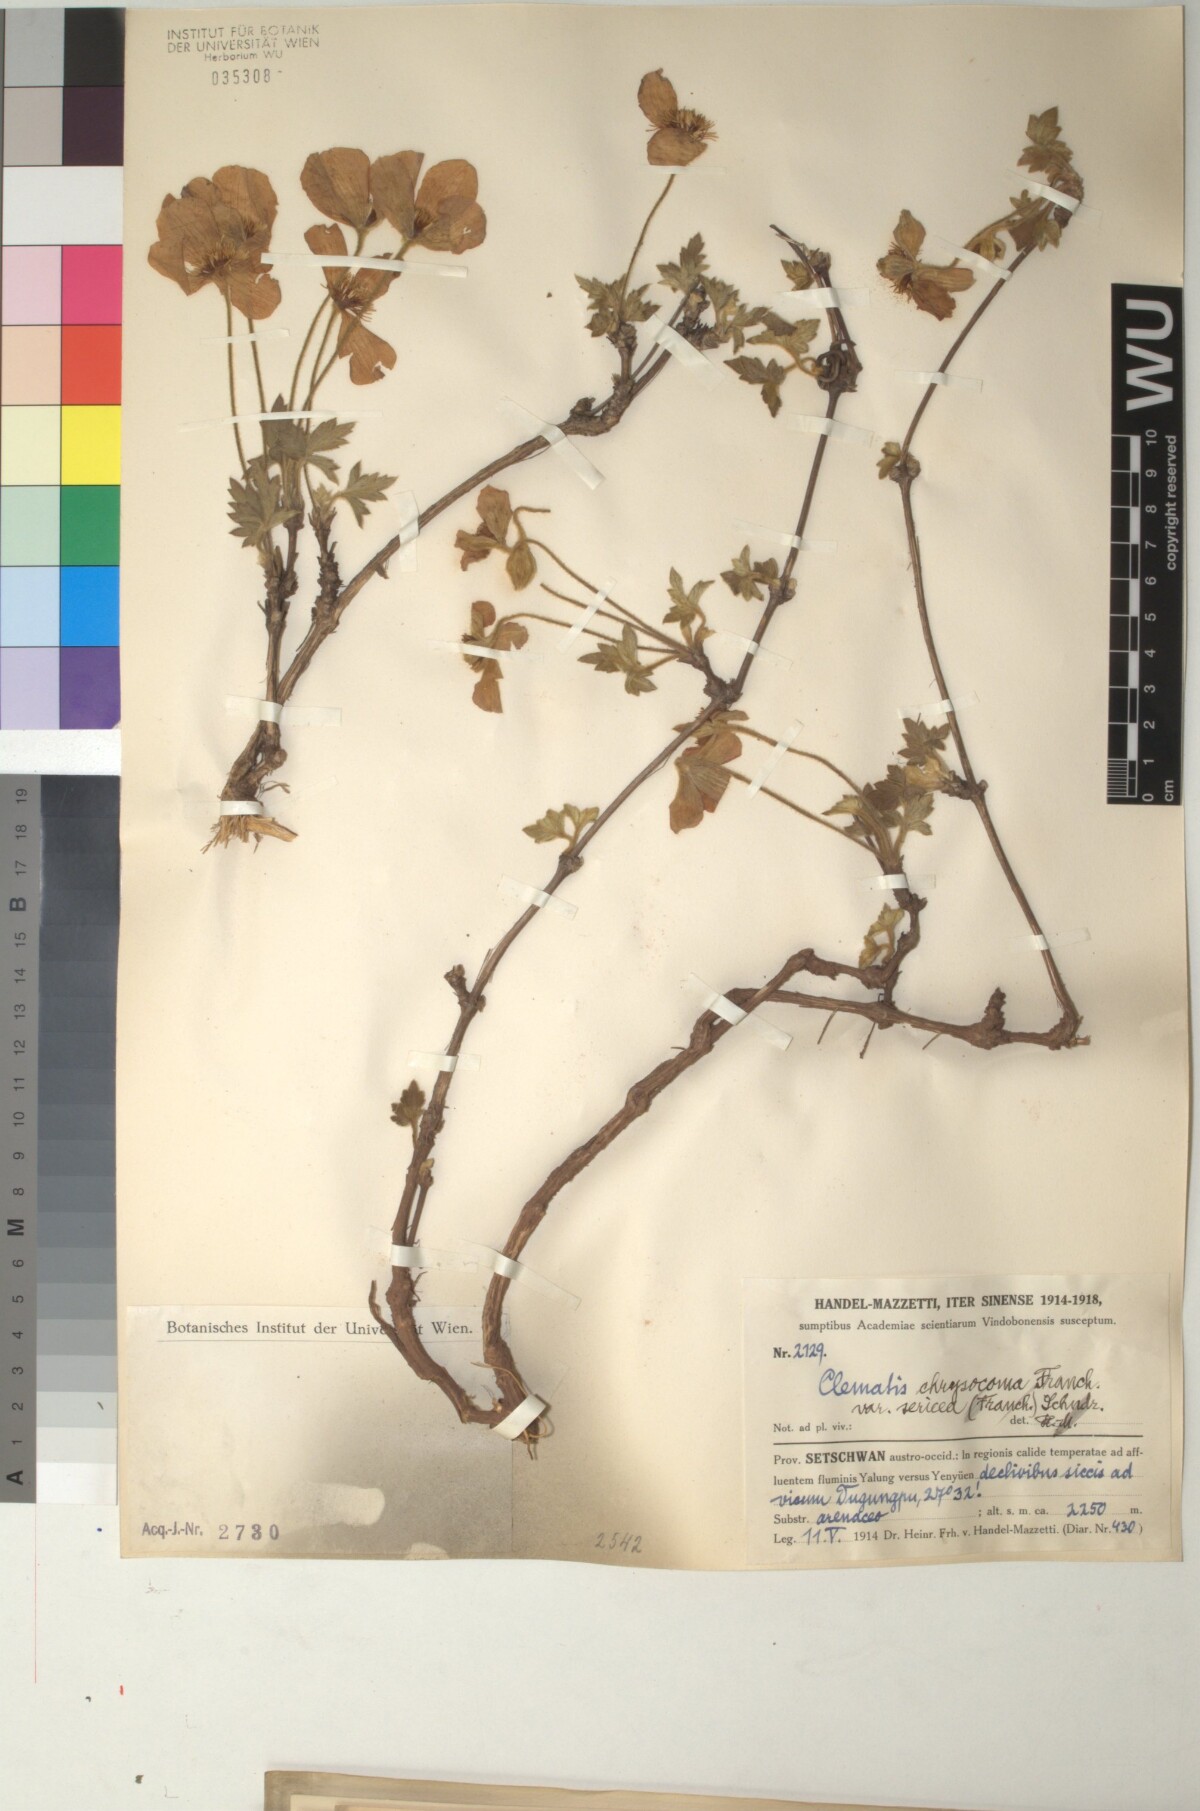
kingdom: Plantae
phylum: Tracheophyta
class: Magnoliopsida
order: Ranunculales
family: Ranunculaceae
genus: Clematis
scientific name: Clematis chrysocoma
